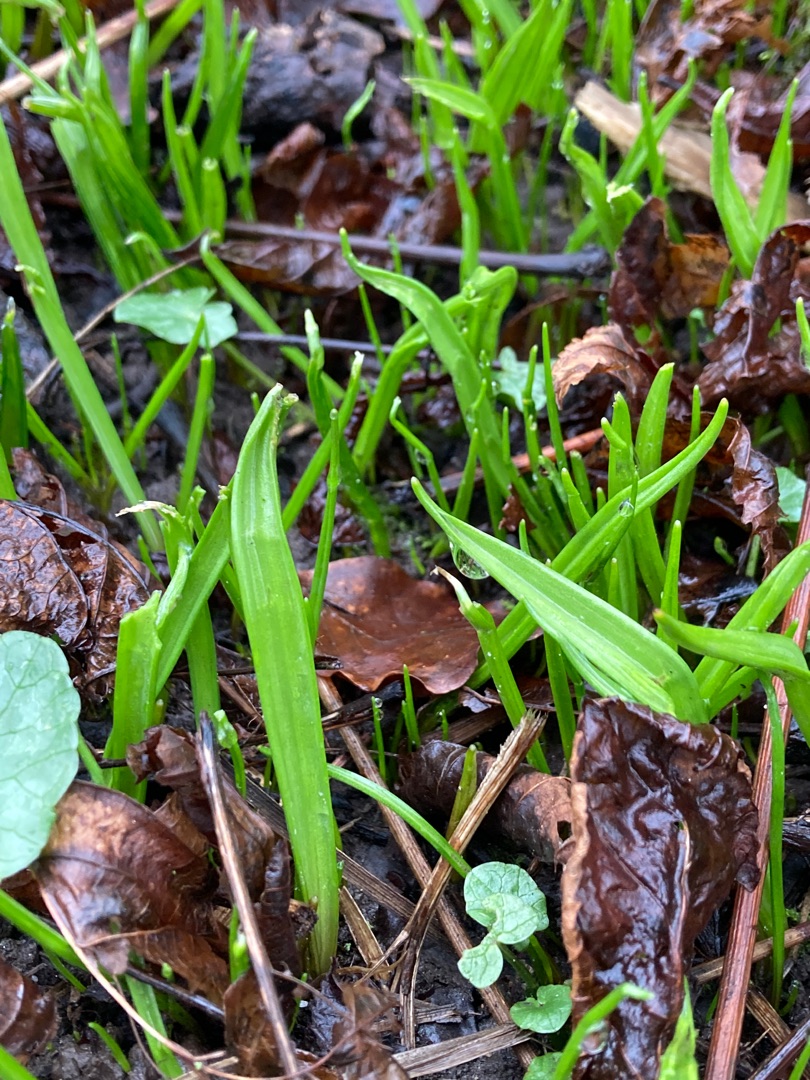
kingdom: Plantae
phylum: Tracheophyta
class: Liliopsida
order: Liliales
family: Liliaceae
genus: Gagea
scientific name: Gagea lutea
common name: Almindelig guldstjerne
